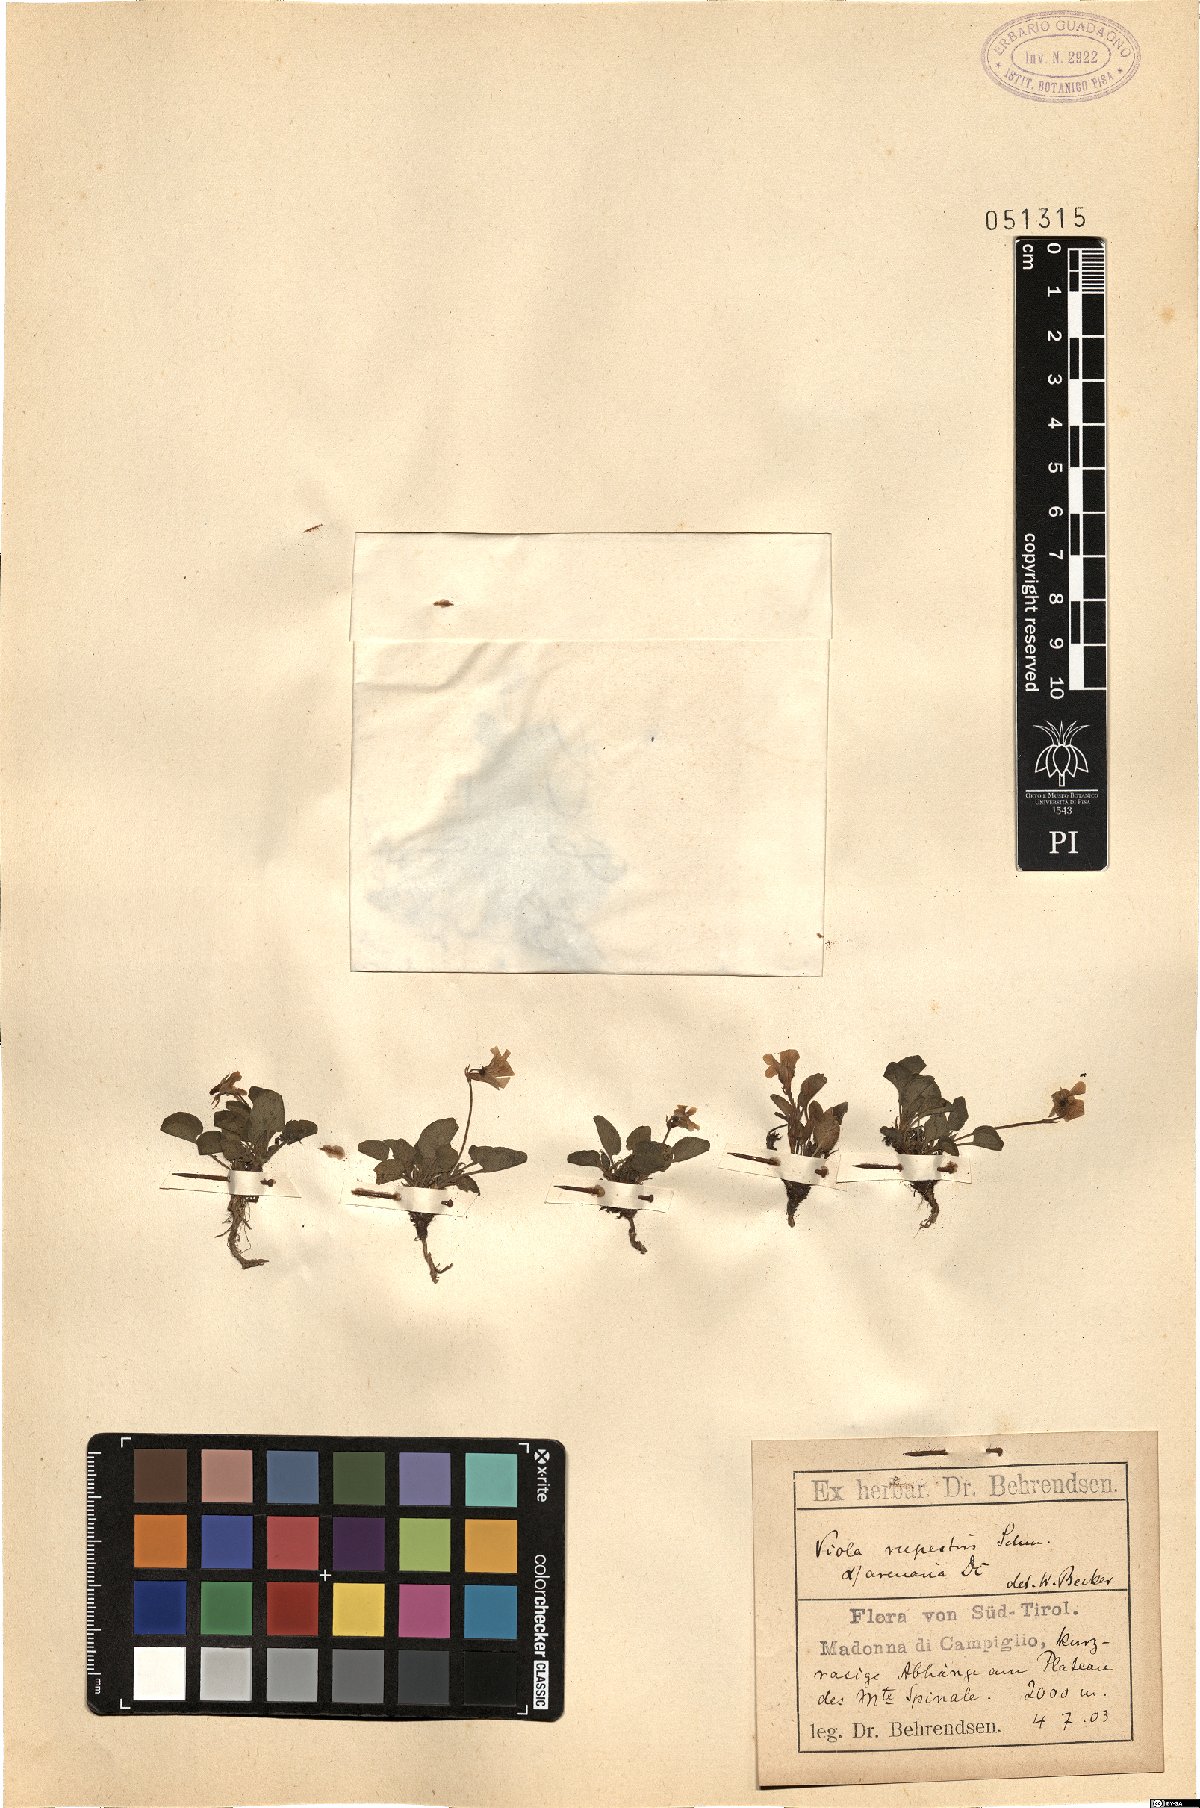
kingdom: Plantae
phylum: Tracheophyta
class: Magnoliopsida
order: Malpighiales
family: Violaceae
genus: Viola
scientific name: Viola rupestris
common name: Teesdale violet
